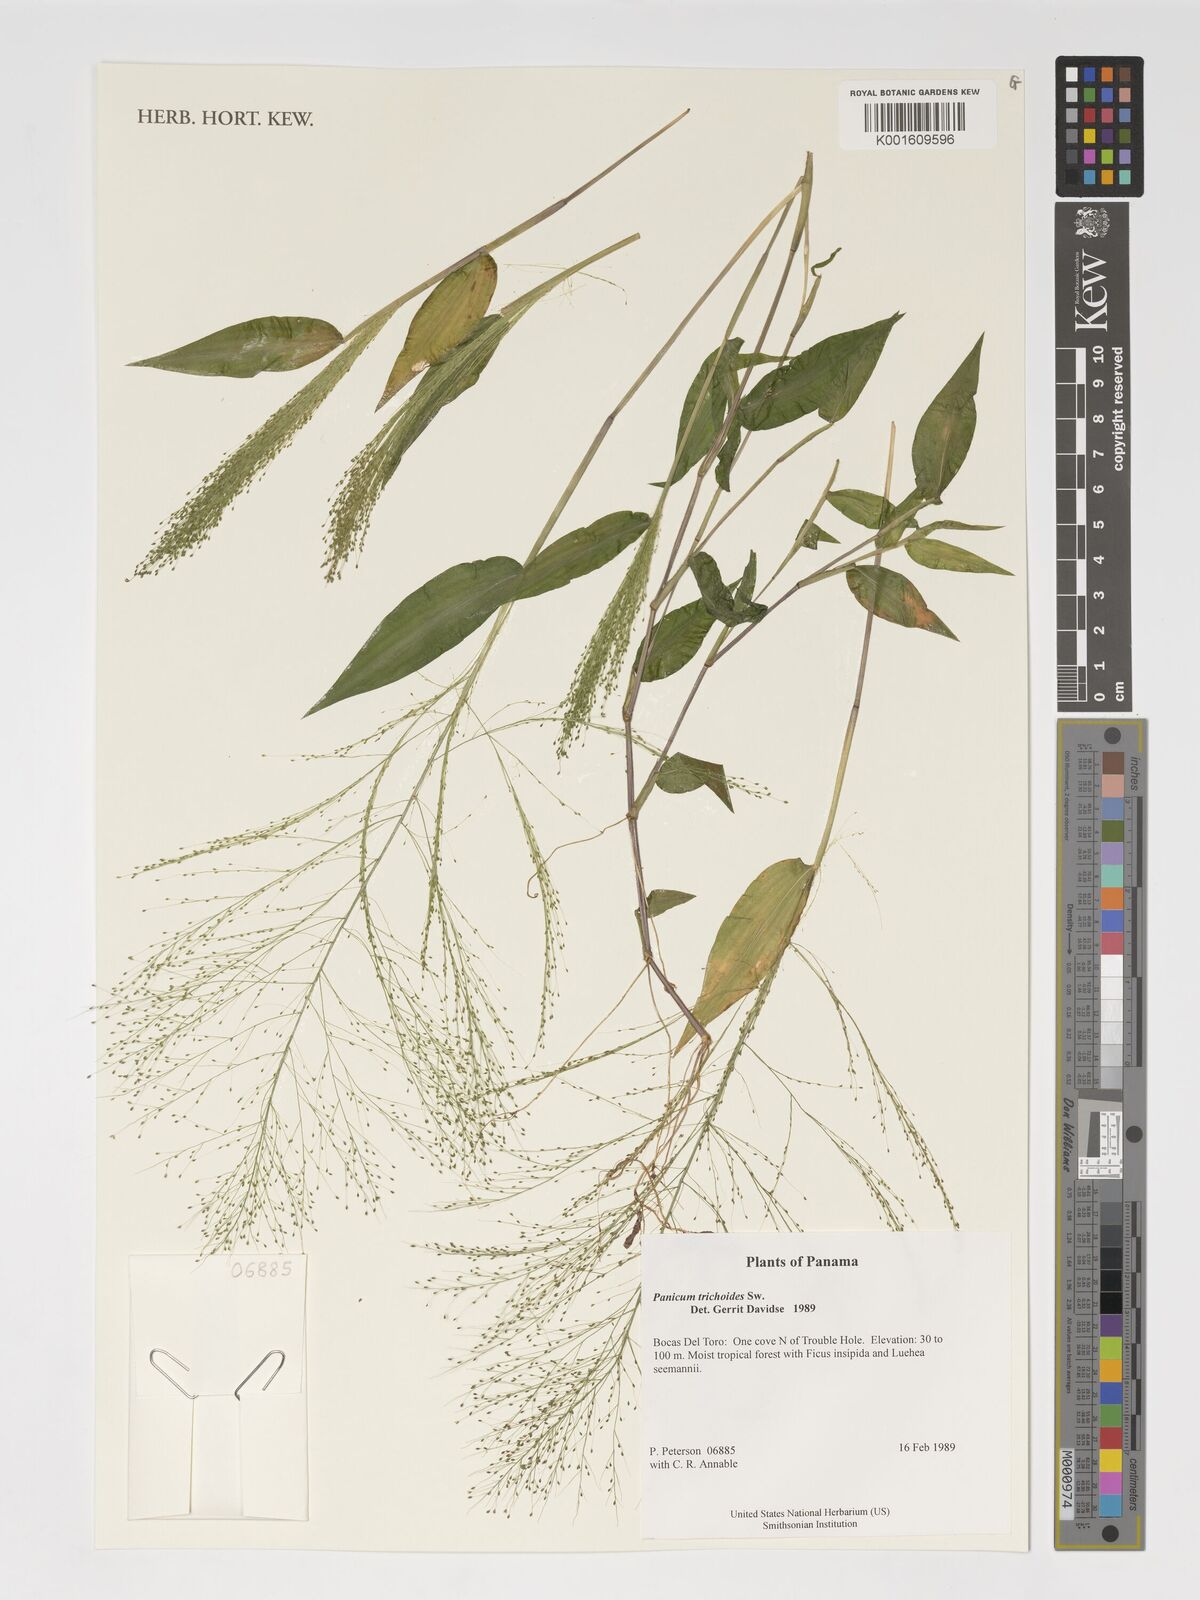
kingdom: Plantae
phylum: Tracheophyta
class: Liliopsida
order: Poales
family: Poaceae
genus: Panicum
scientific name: Panicum trichoides
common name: Tickle grass
